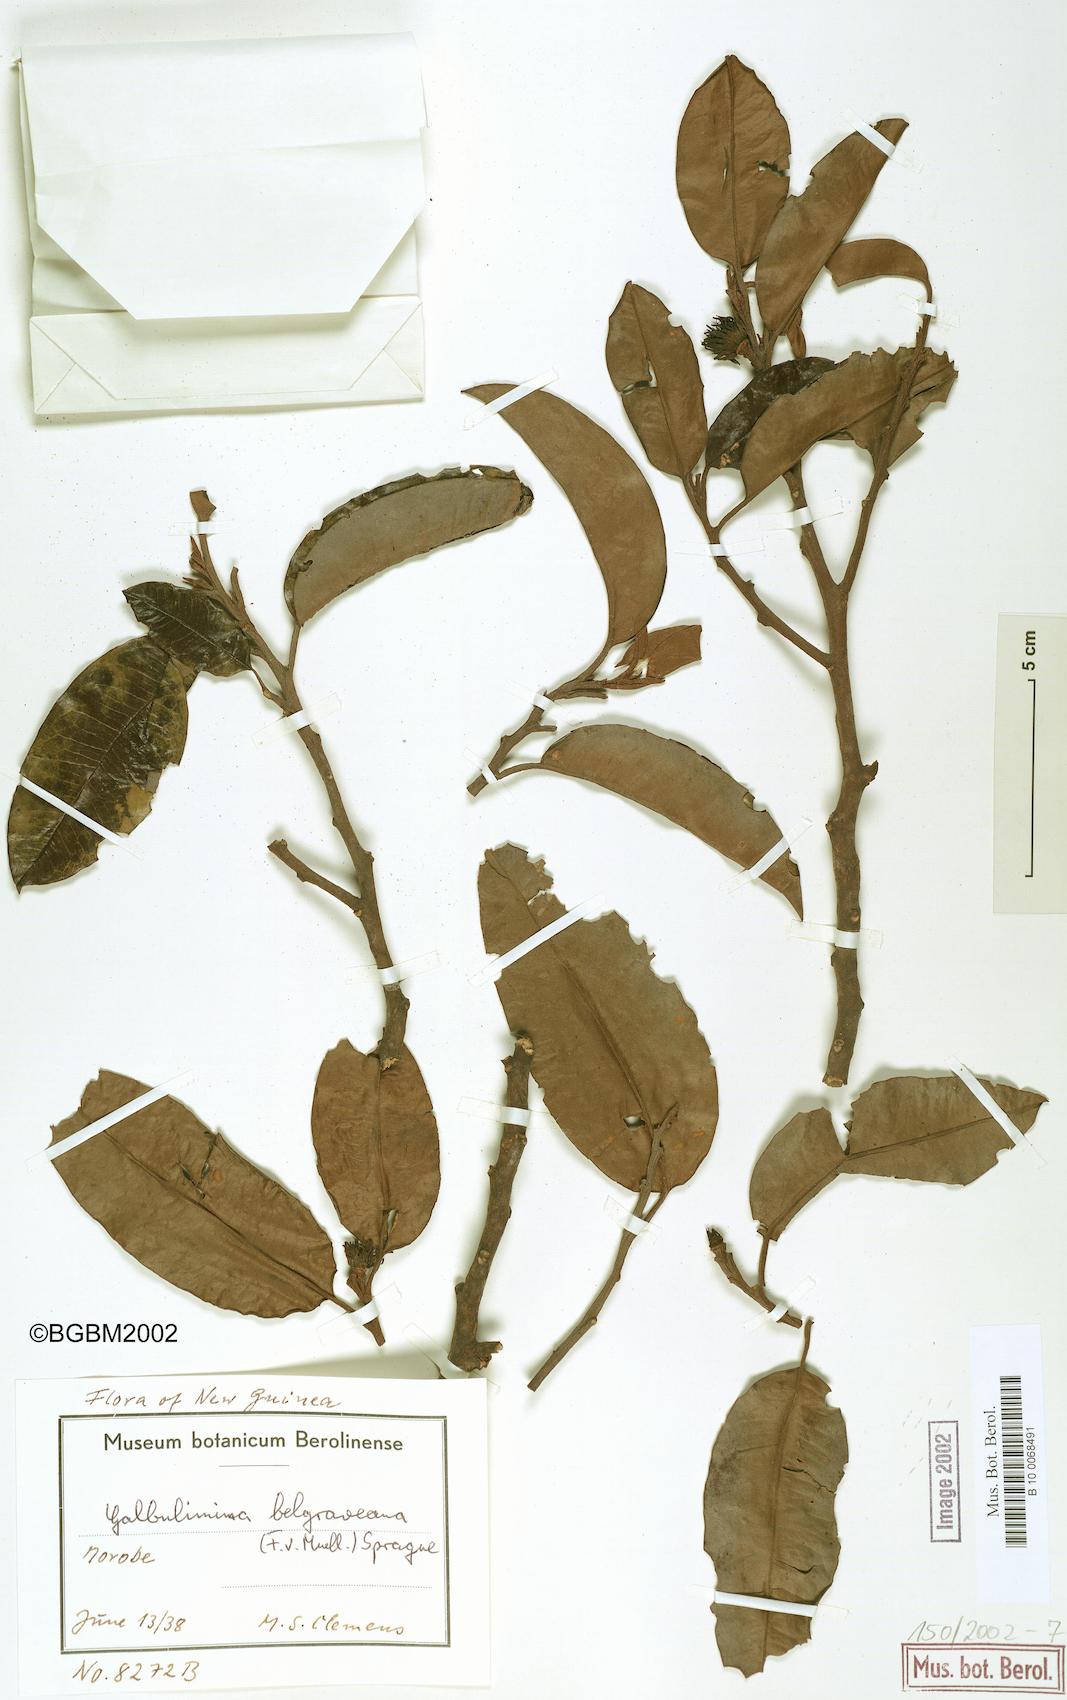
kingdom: Plantae
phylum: Tracheophyta
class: Magnoliopsida
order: Magnoliales
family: Himantandraceae
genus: Galbulimima
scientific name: Galbulimima belgraveana
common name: Northern pigeonberry-ash
